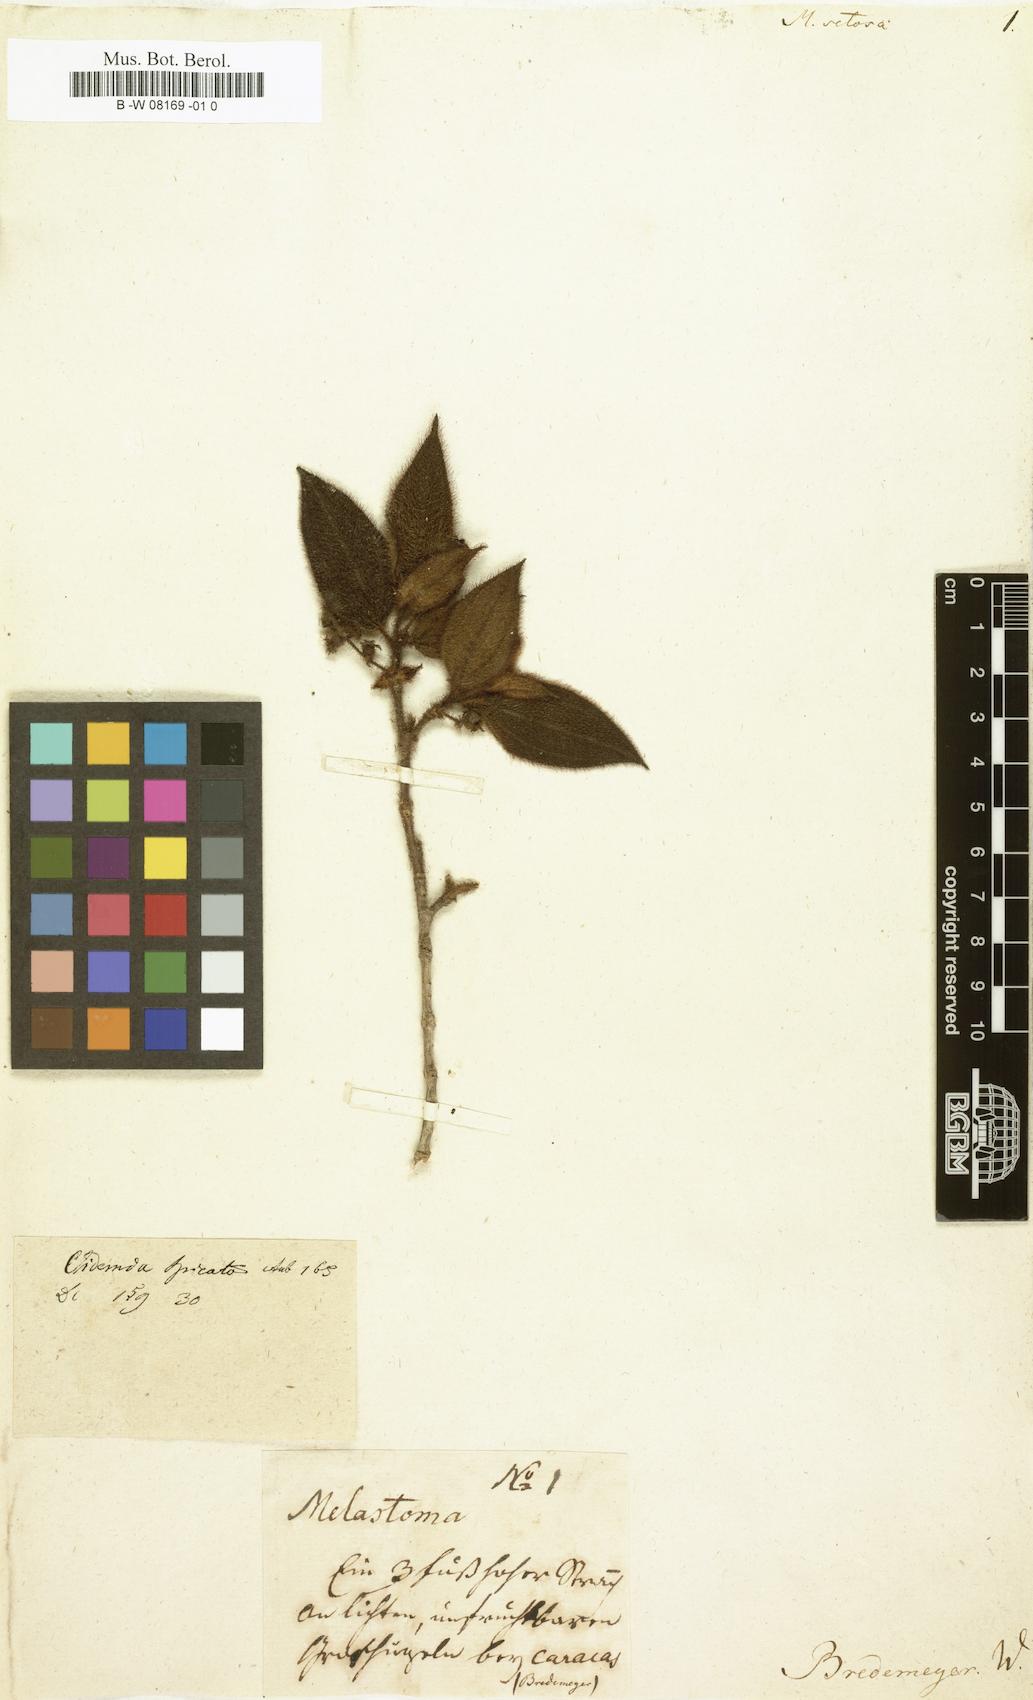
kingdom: Plantae
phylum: Tracheophyta
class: Magnoliopsida
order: Myrtales
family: Melastomataceae
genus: Melastoma
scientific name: Melastoma penicillatum
